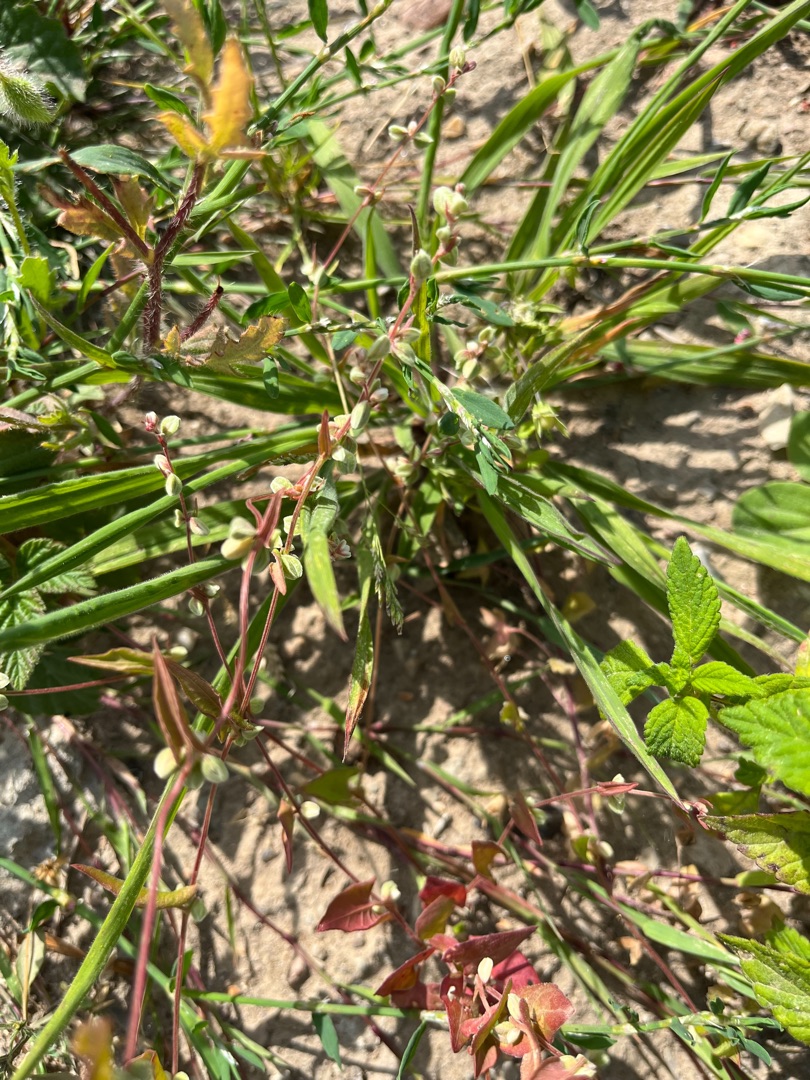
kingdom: Plantae
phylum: Tracheophyta
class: Magnoliopsida
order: Caryophyllales
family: Polygonaceae
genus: Fallopia
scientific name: Fallopia convolvulus
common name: Snerle-pileurt
